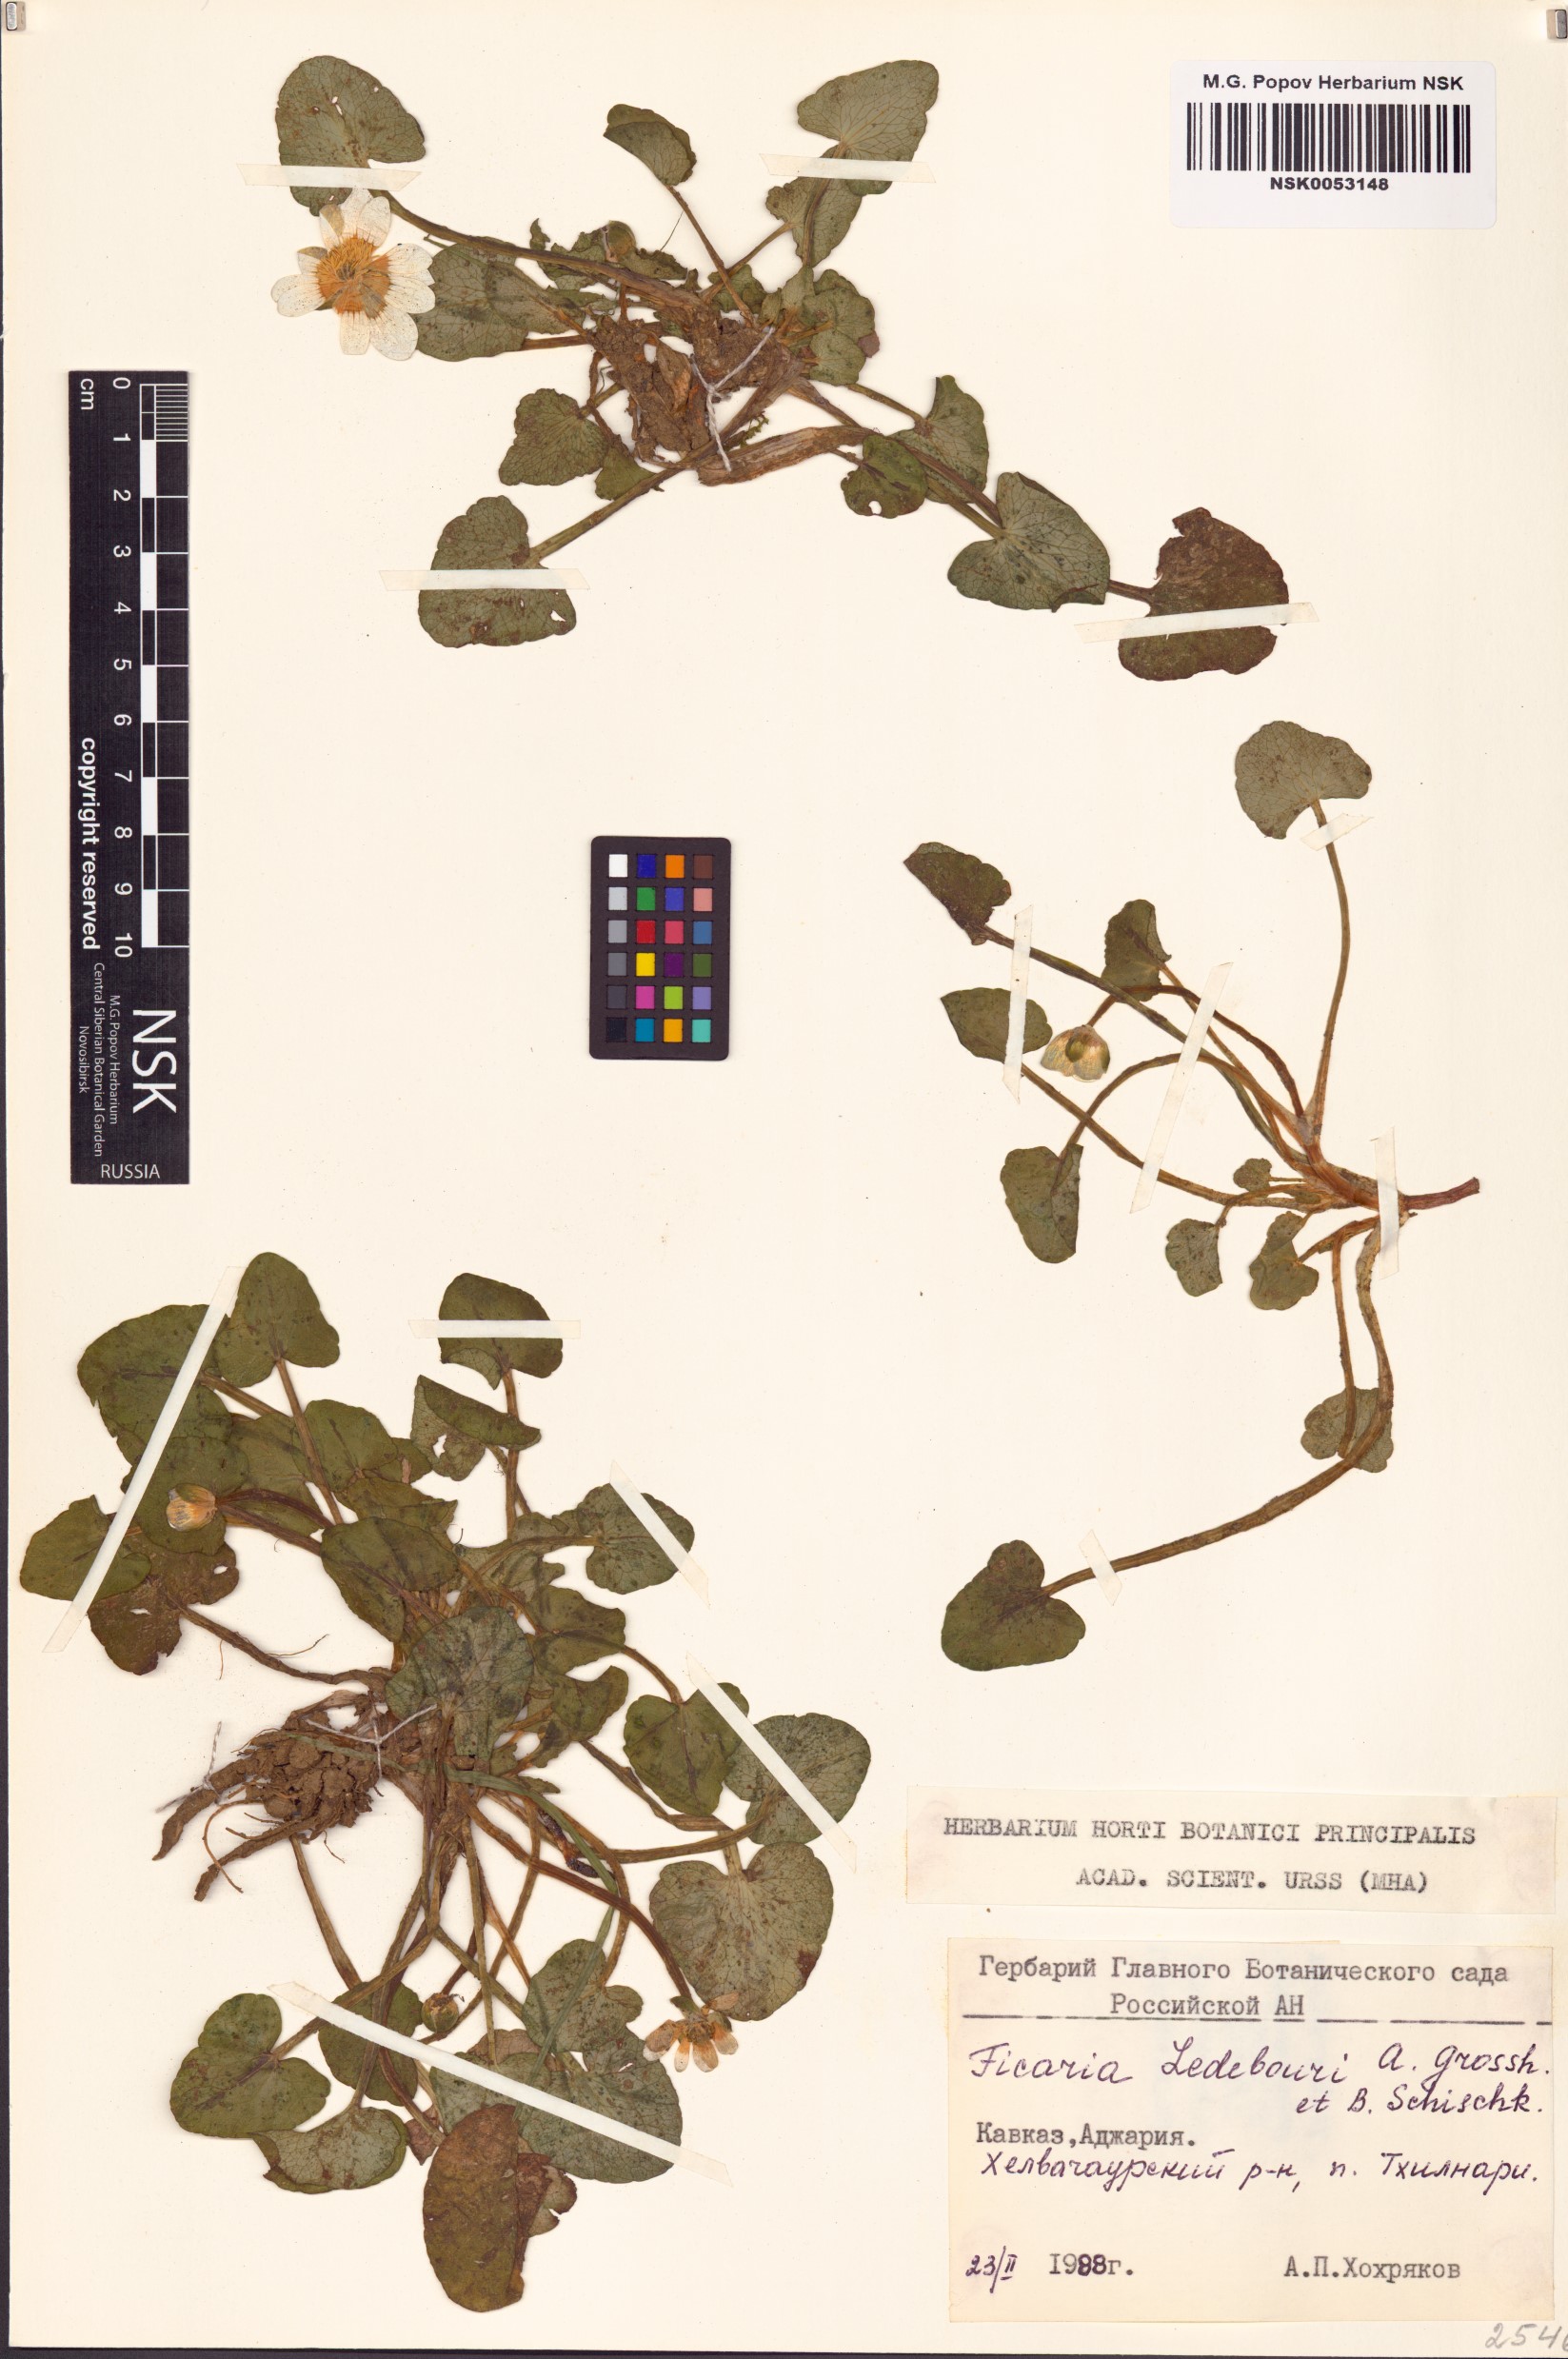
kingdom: Plantae
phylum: Tracheophyta
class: Magnoliopsida
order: Ranunculales
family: Ranunculaceae
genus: Ficaria
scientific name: Ficaria calthifolia
